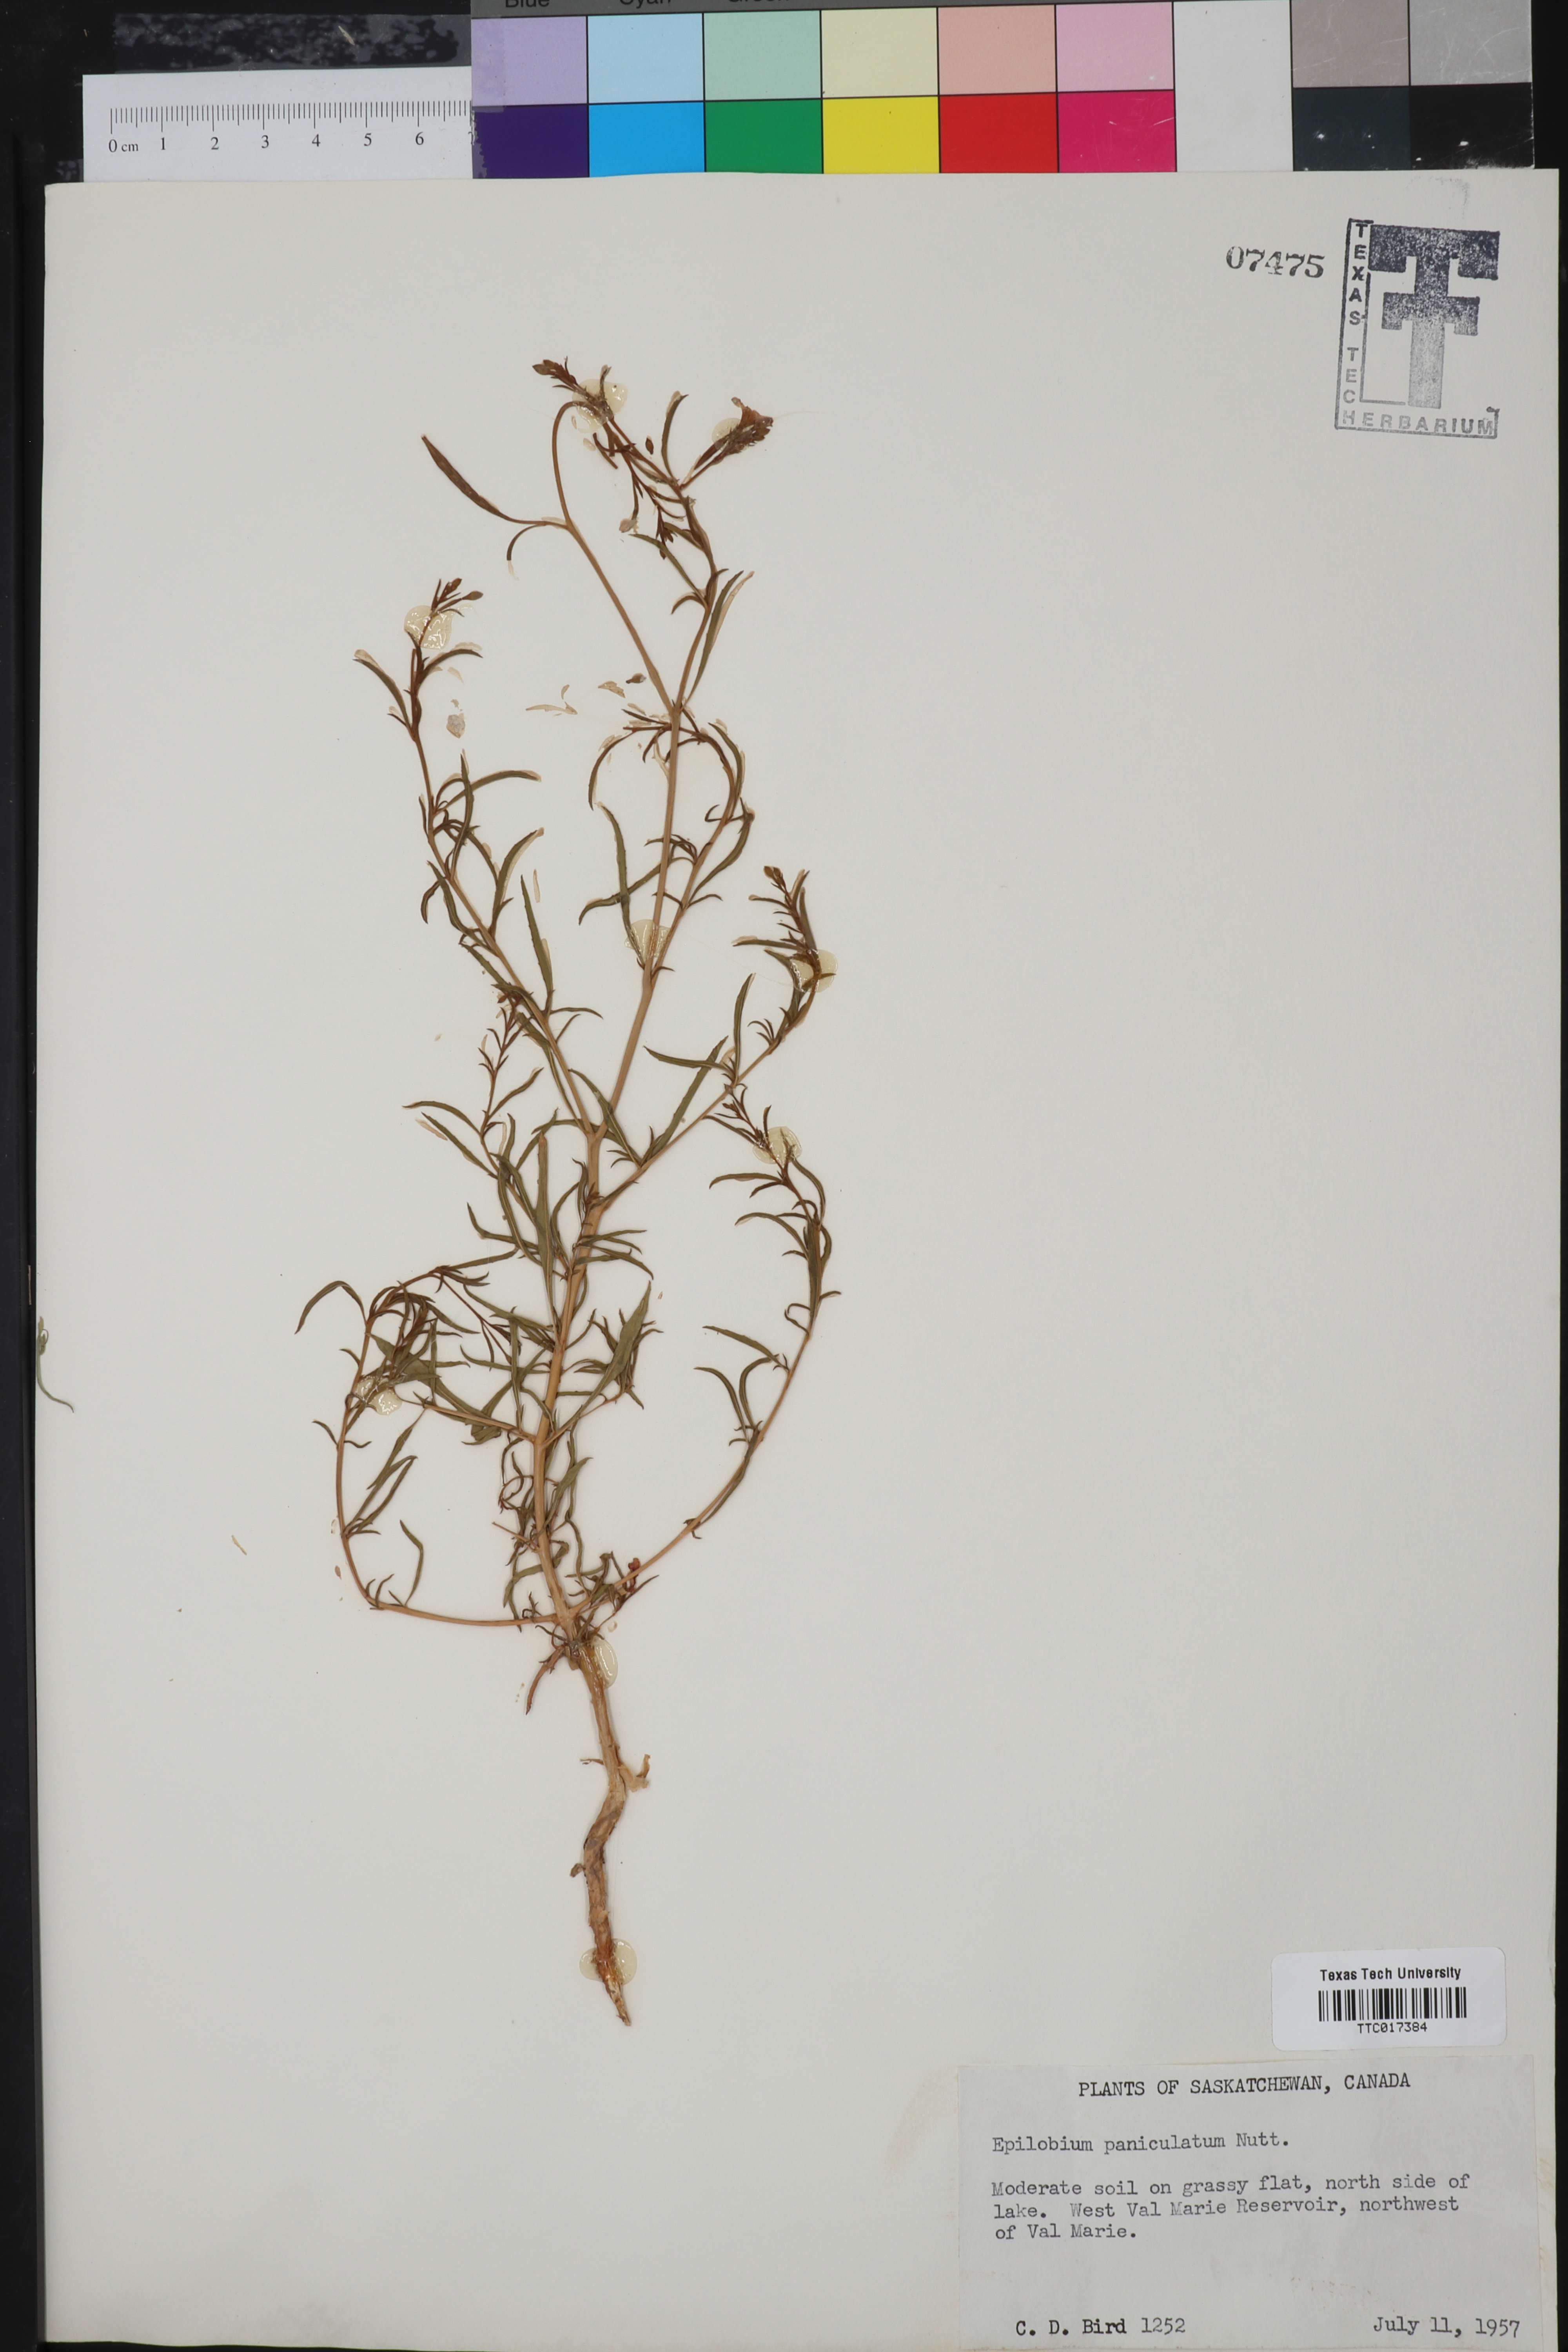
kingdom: Plantae
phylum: Tracheophyta
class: Magnoliopsida
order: Myrtales
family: Onagraceae
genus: Epilobium
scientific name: Epilobium brachycarpum
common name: Annual willowherb
